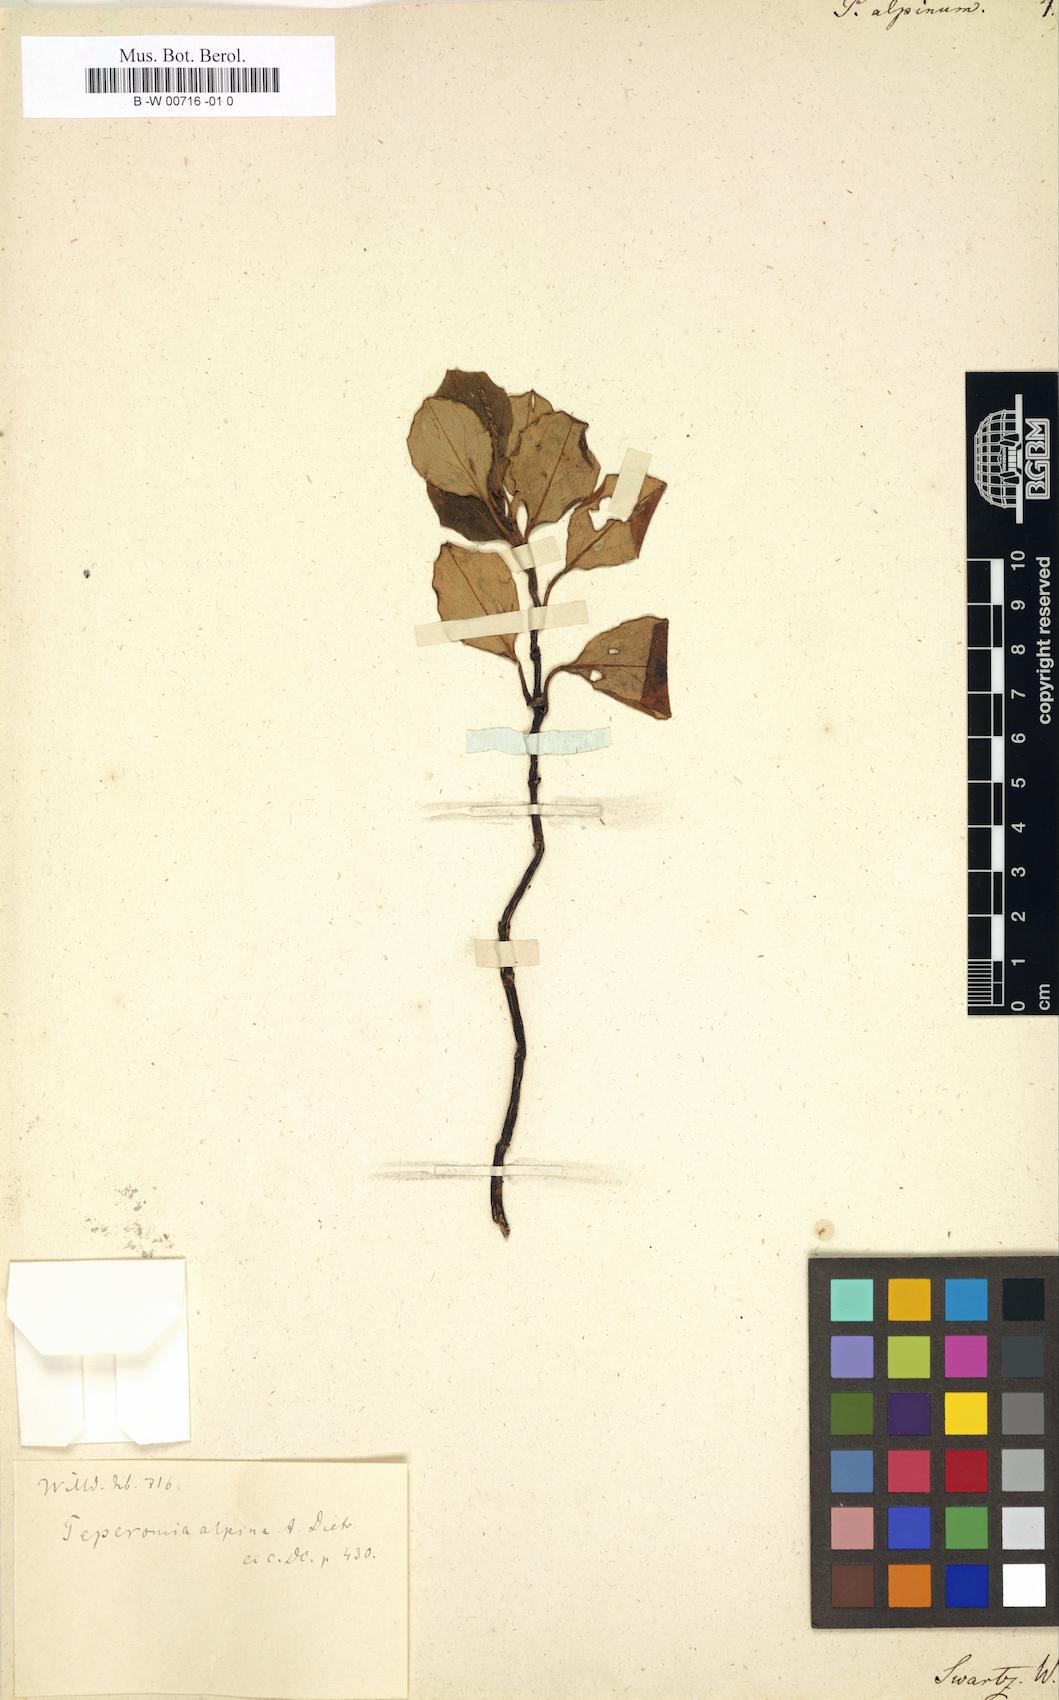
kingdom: Plantae
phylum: Tracheophyta
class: Magnoliopsida
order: Piperales
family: Piperaceae
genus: Peperomia
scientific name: Peperomia alpina
